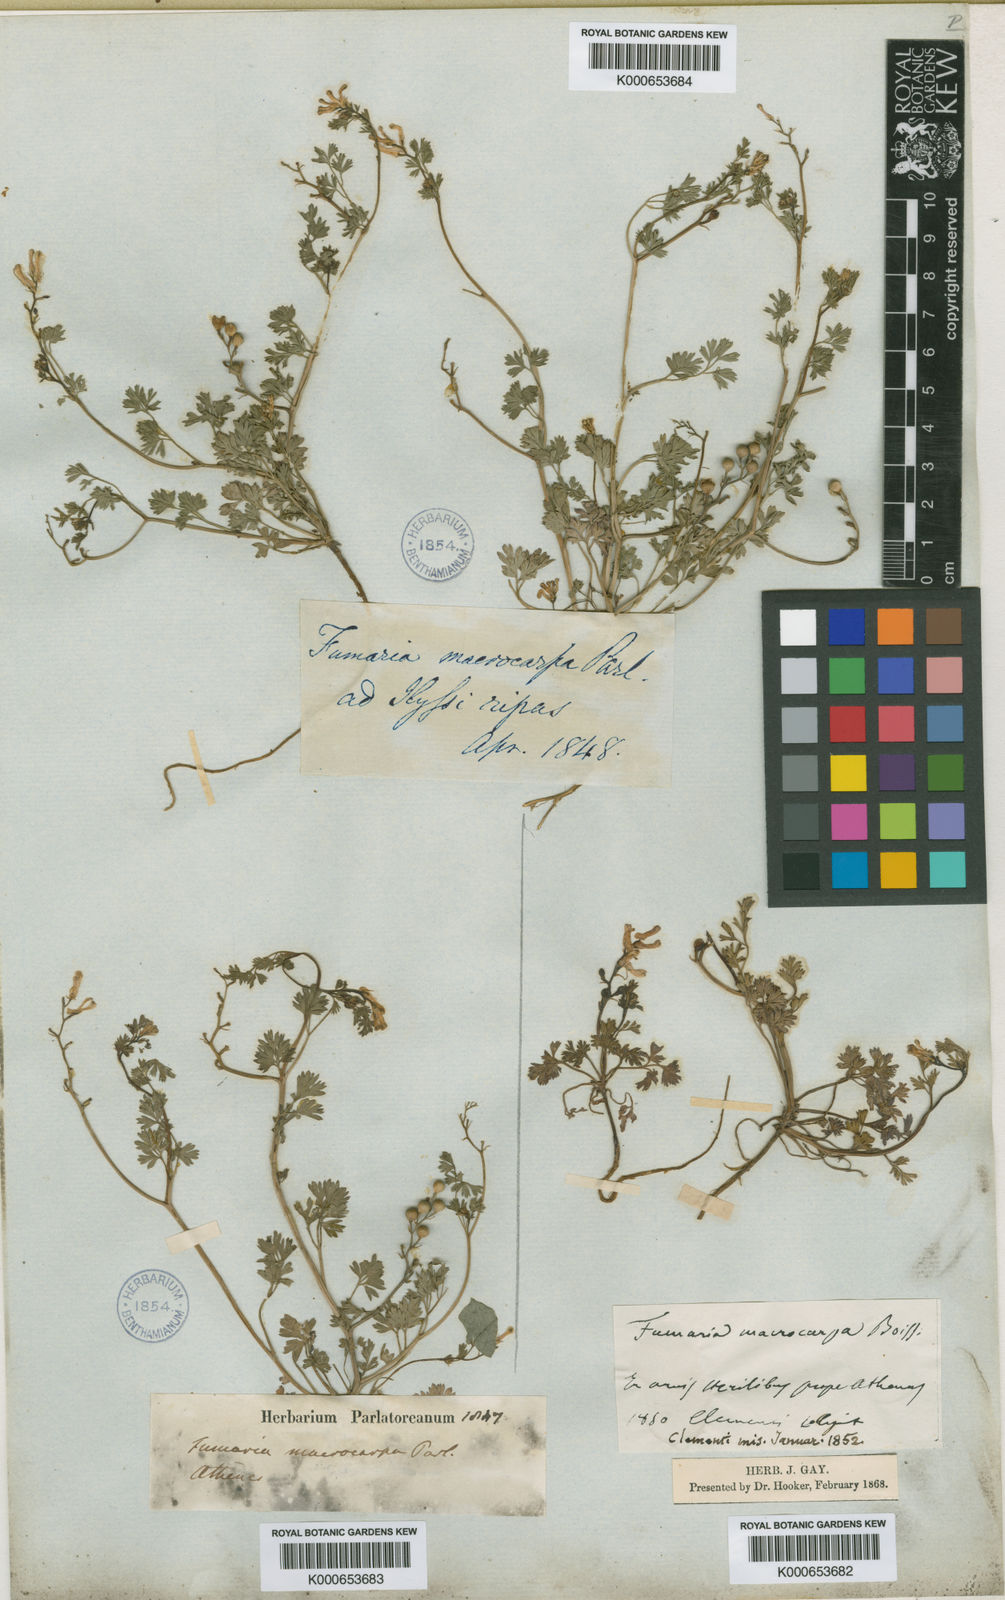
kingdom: Plantae
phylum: Tracheophyta
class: Magnoliopsida
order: Ranunculales
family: Papaveraceae
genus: Fumaria
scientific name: Fumaria macrocarpa
